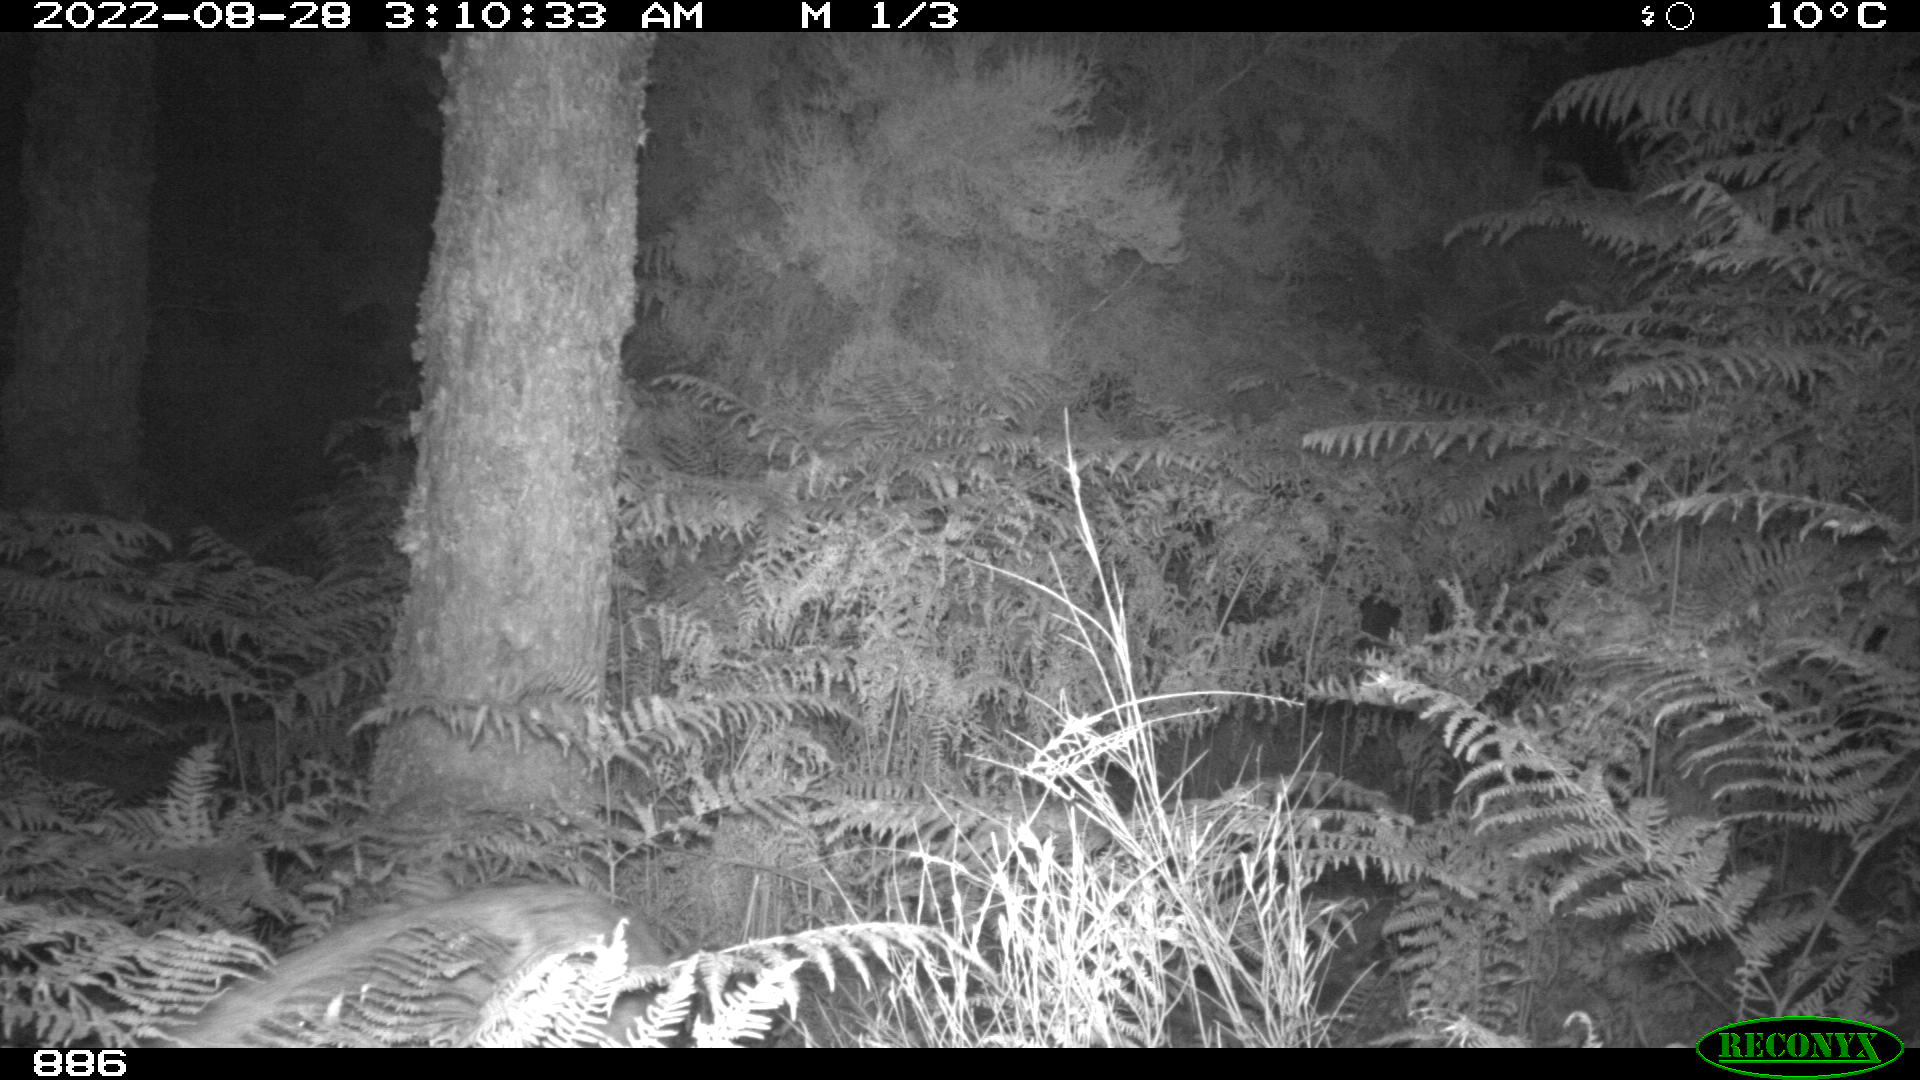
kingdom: Animalia
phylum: Chordata
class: Mammalia
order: Artiodactyla
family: Cervidae
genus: Capreolus
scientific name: Capreolus capreolus
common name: Western roe deer
